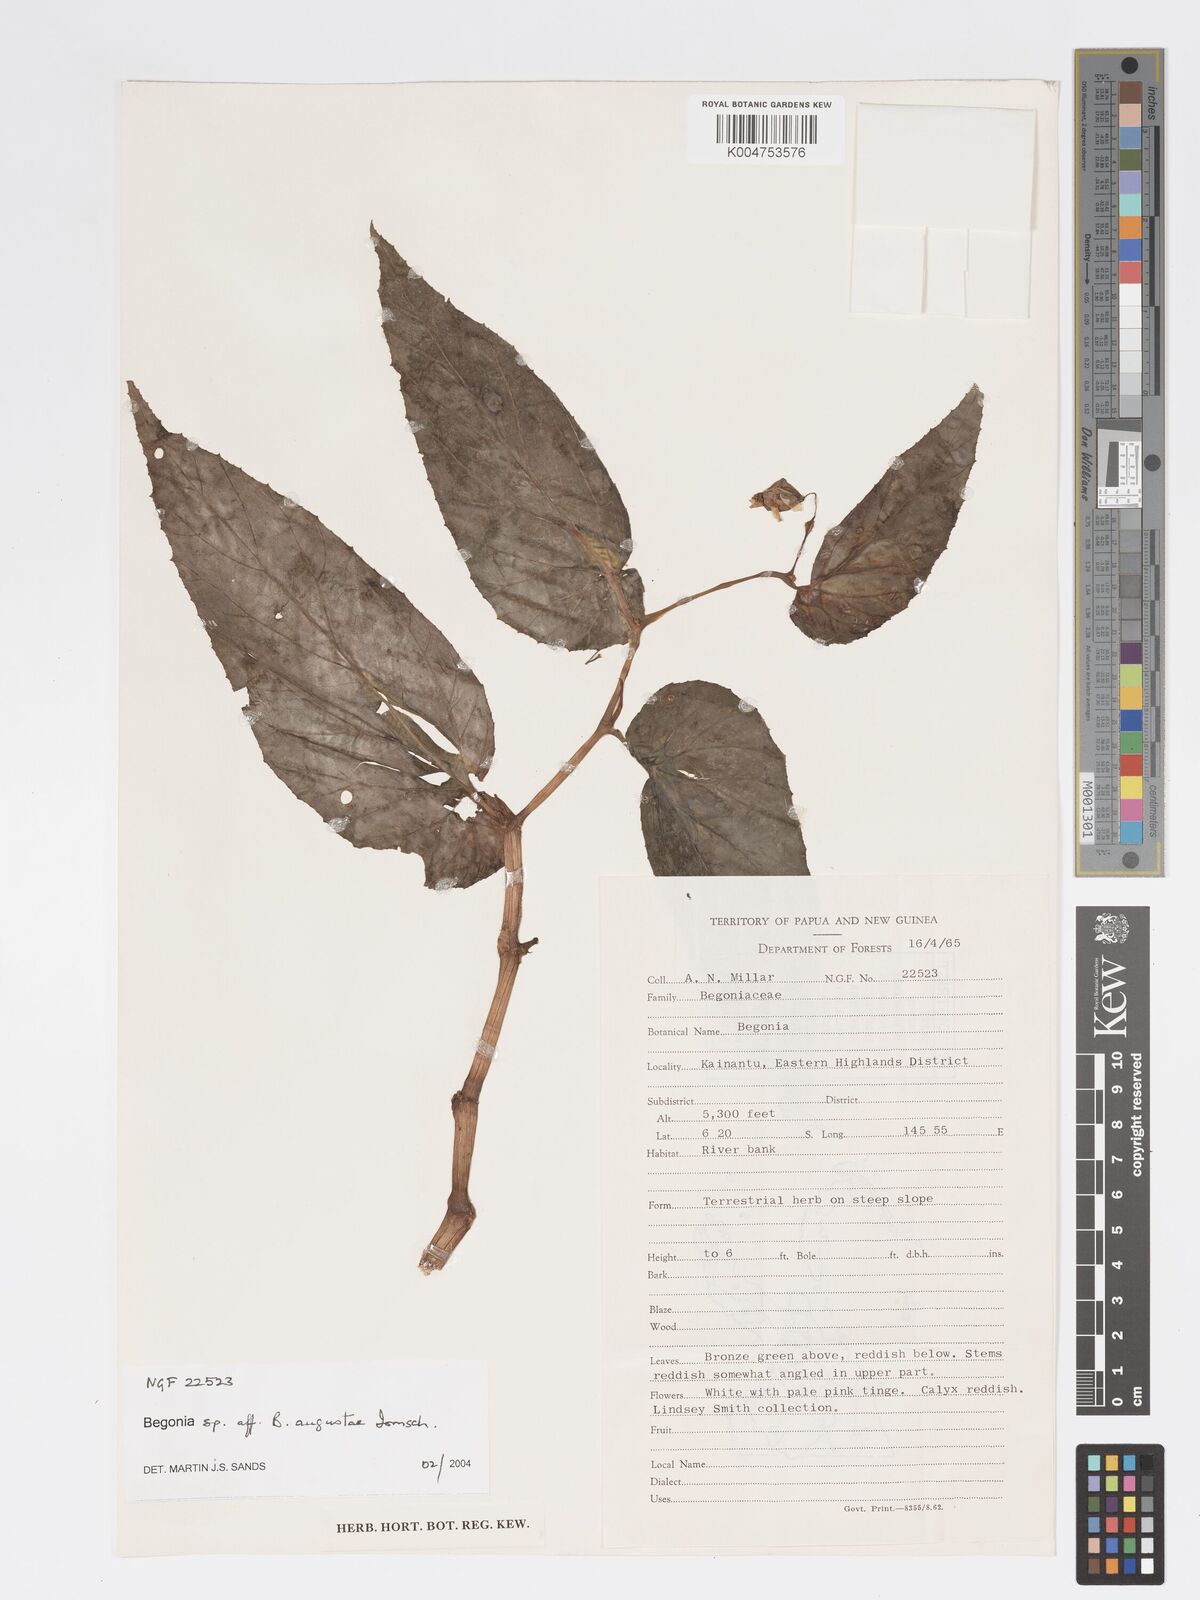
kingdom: Plantae
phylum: Tracheophyta
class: Magnoliopsida
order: Cucurbitales
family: Begoniaceae
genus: Begonia
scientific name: Begonia augustae
